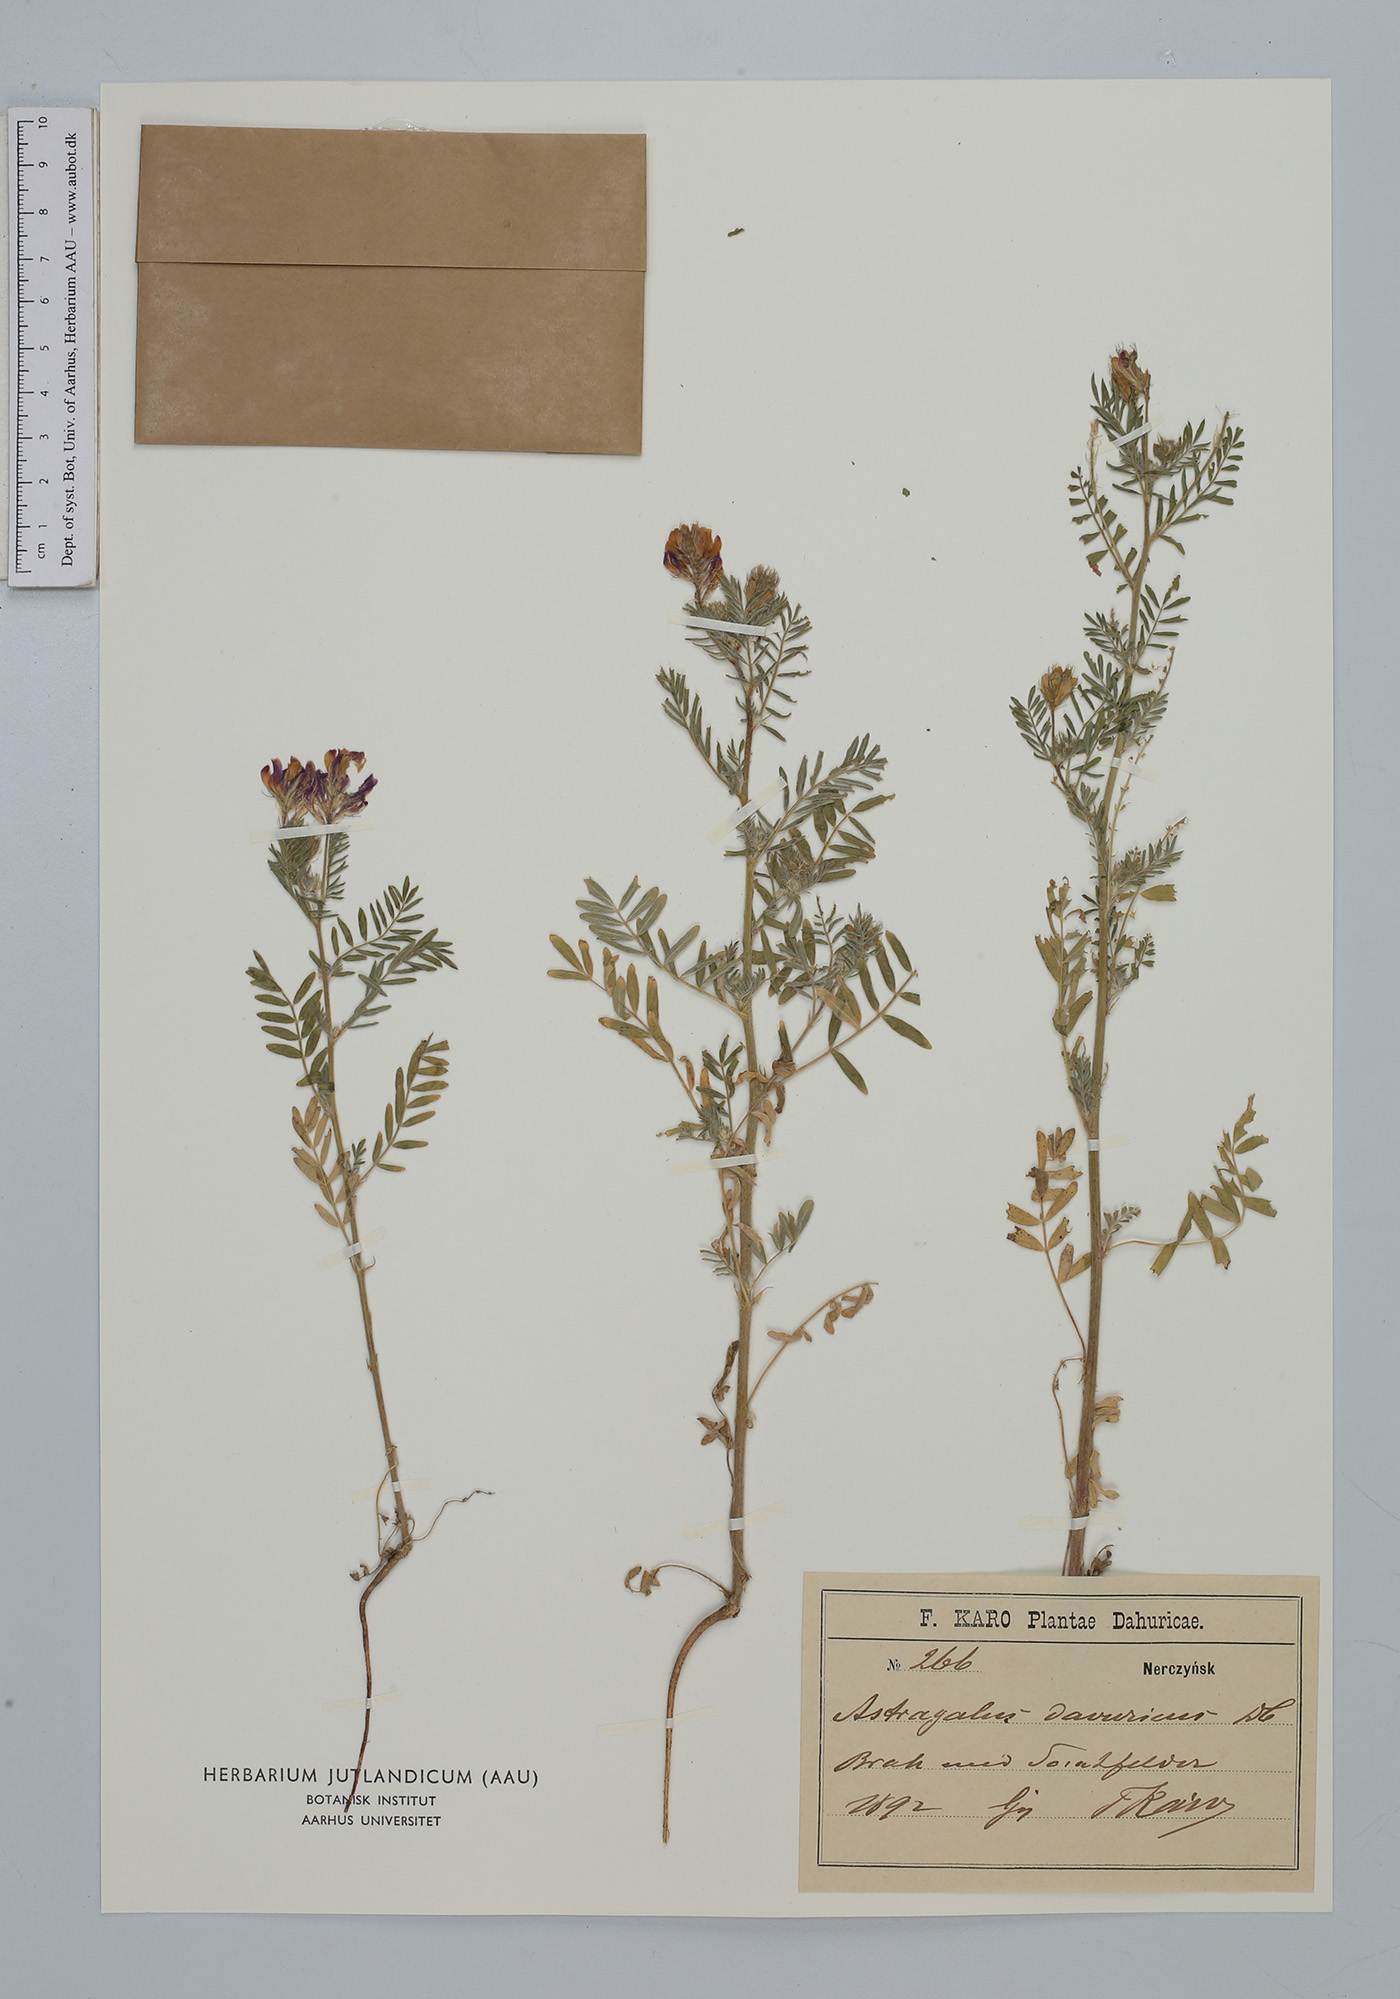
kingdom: Plantae
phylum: Tracheophyta
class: Magnoliopsida
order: Fabales
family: Fabaceae
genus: Astragalus
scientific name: Astragalus stevenianus
